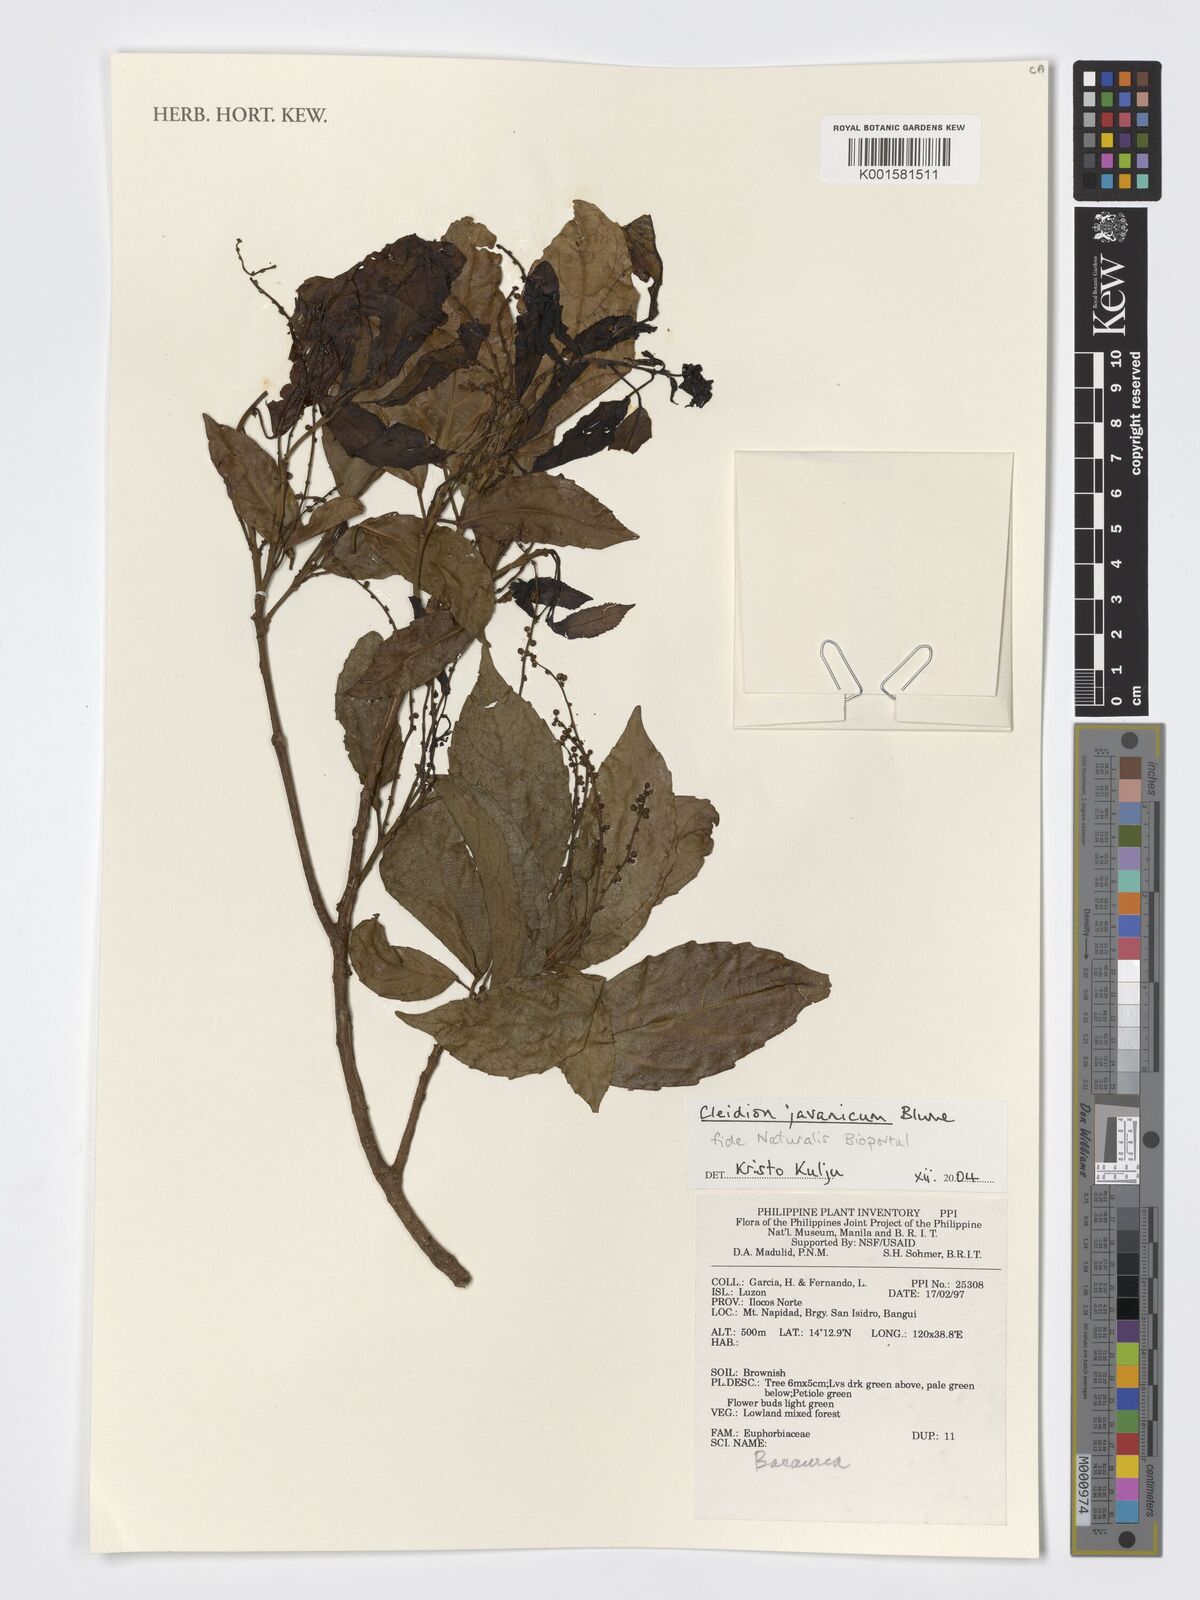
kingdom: Plantae
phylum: Tracheophyta
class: Magnoliopsida
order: Malpighiales
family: Euphorbiaceae
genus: Cleidion
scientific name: Cleidion javanicum
